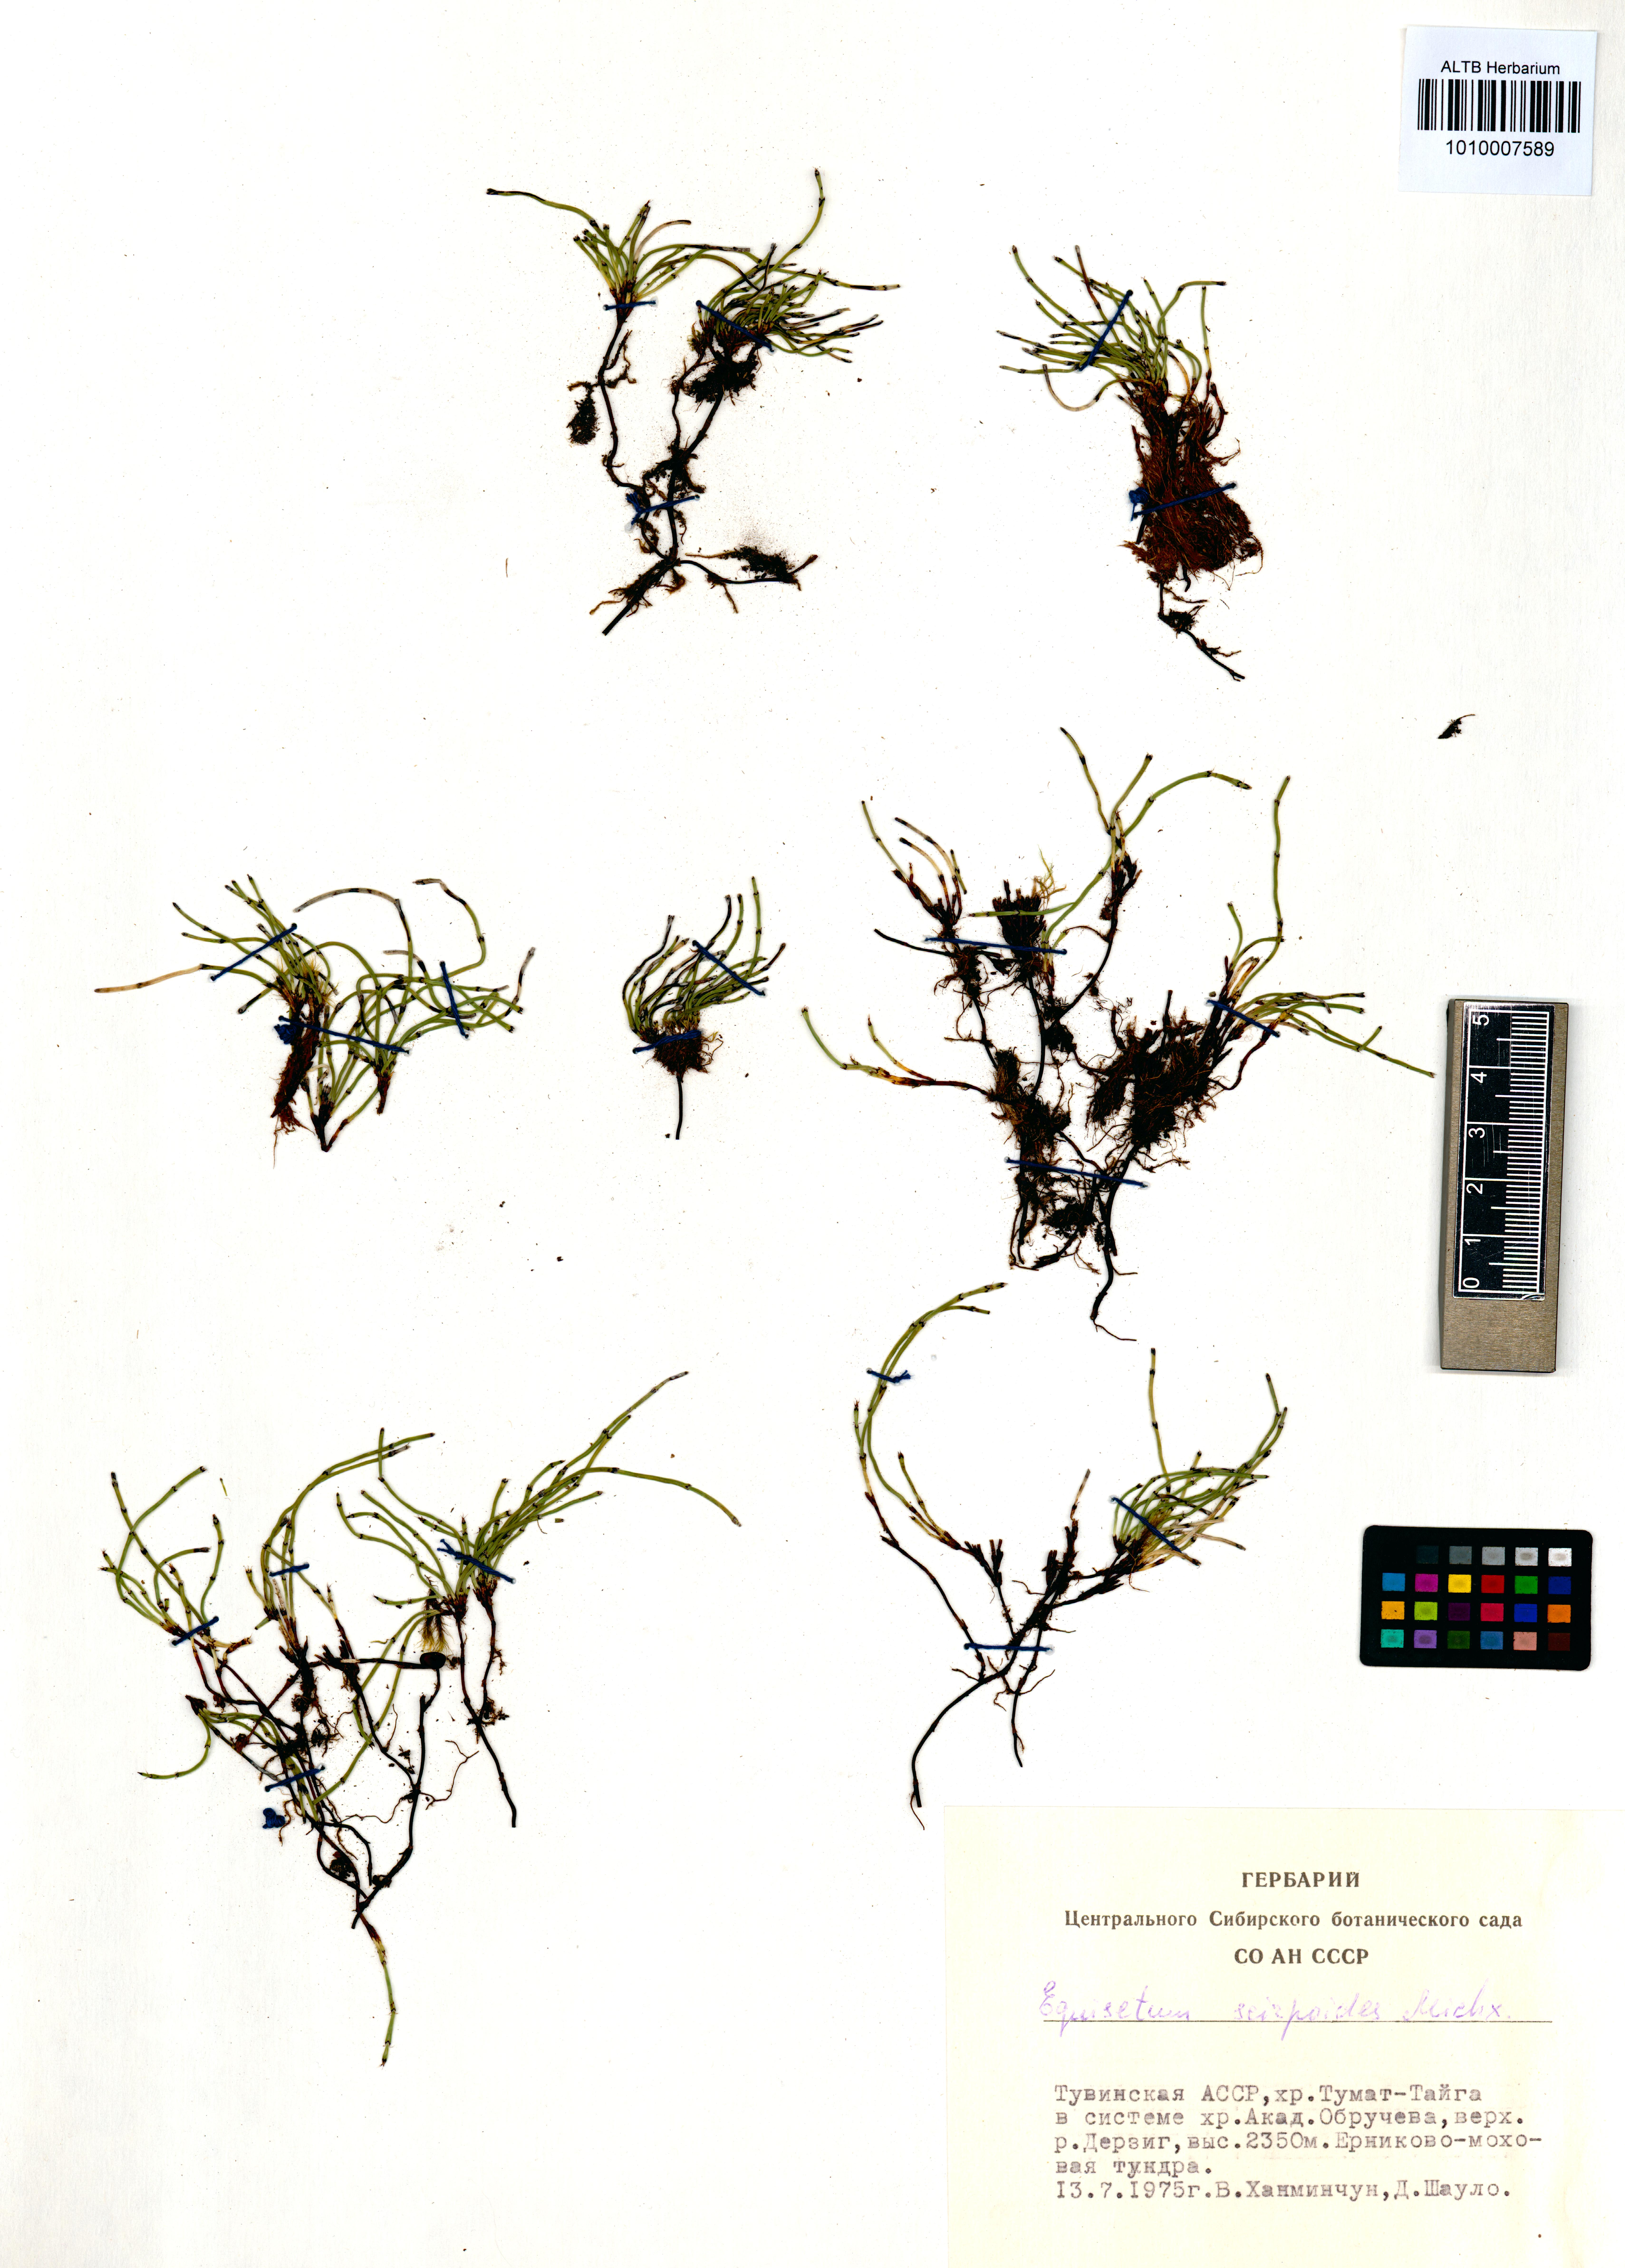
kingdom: Plantae
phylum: Tracheophyta
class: Polypodiopsida
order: Equisetales
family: Equisetaceae
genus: Equisetum
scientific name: Equisetum scirpoides
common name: Delicate horsetail
